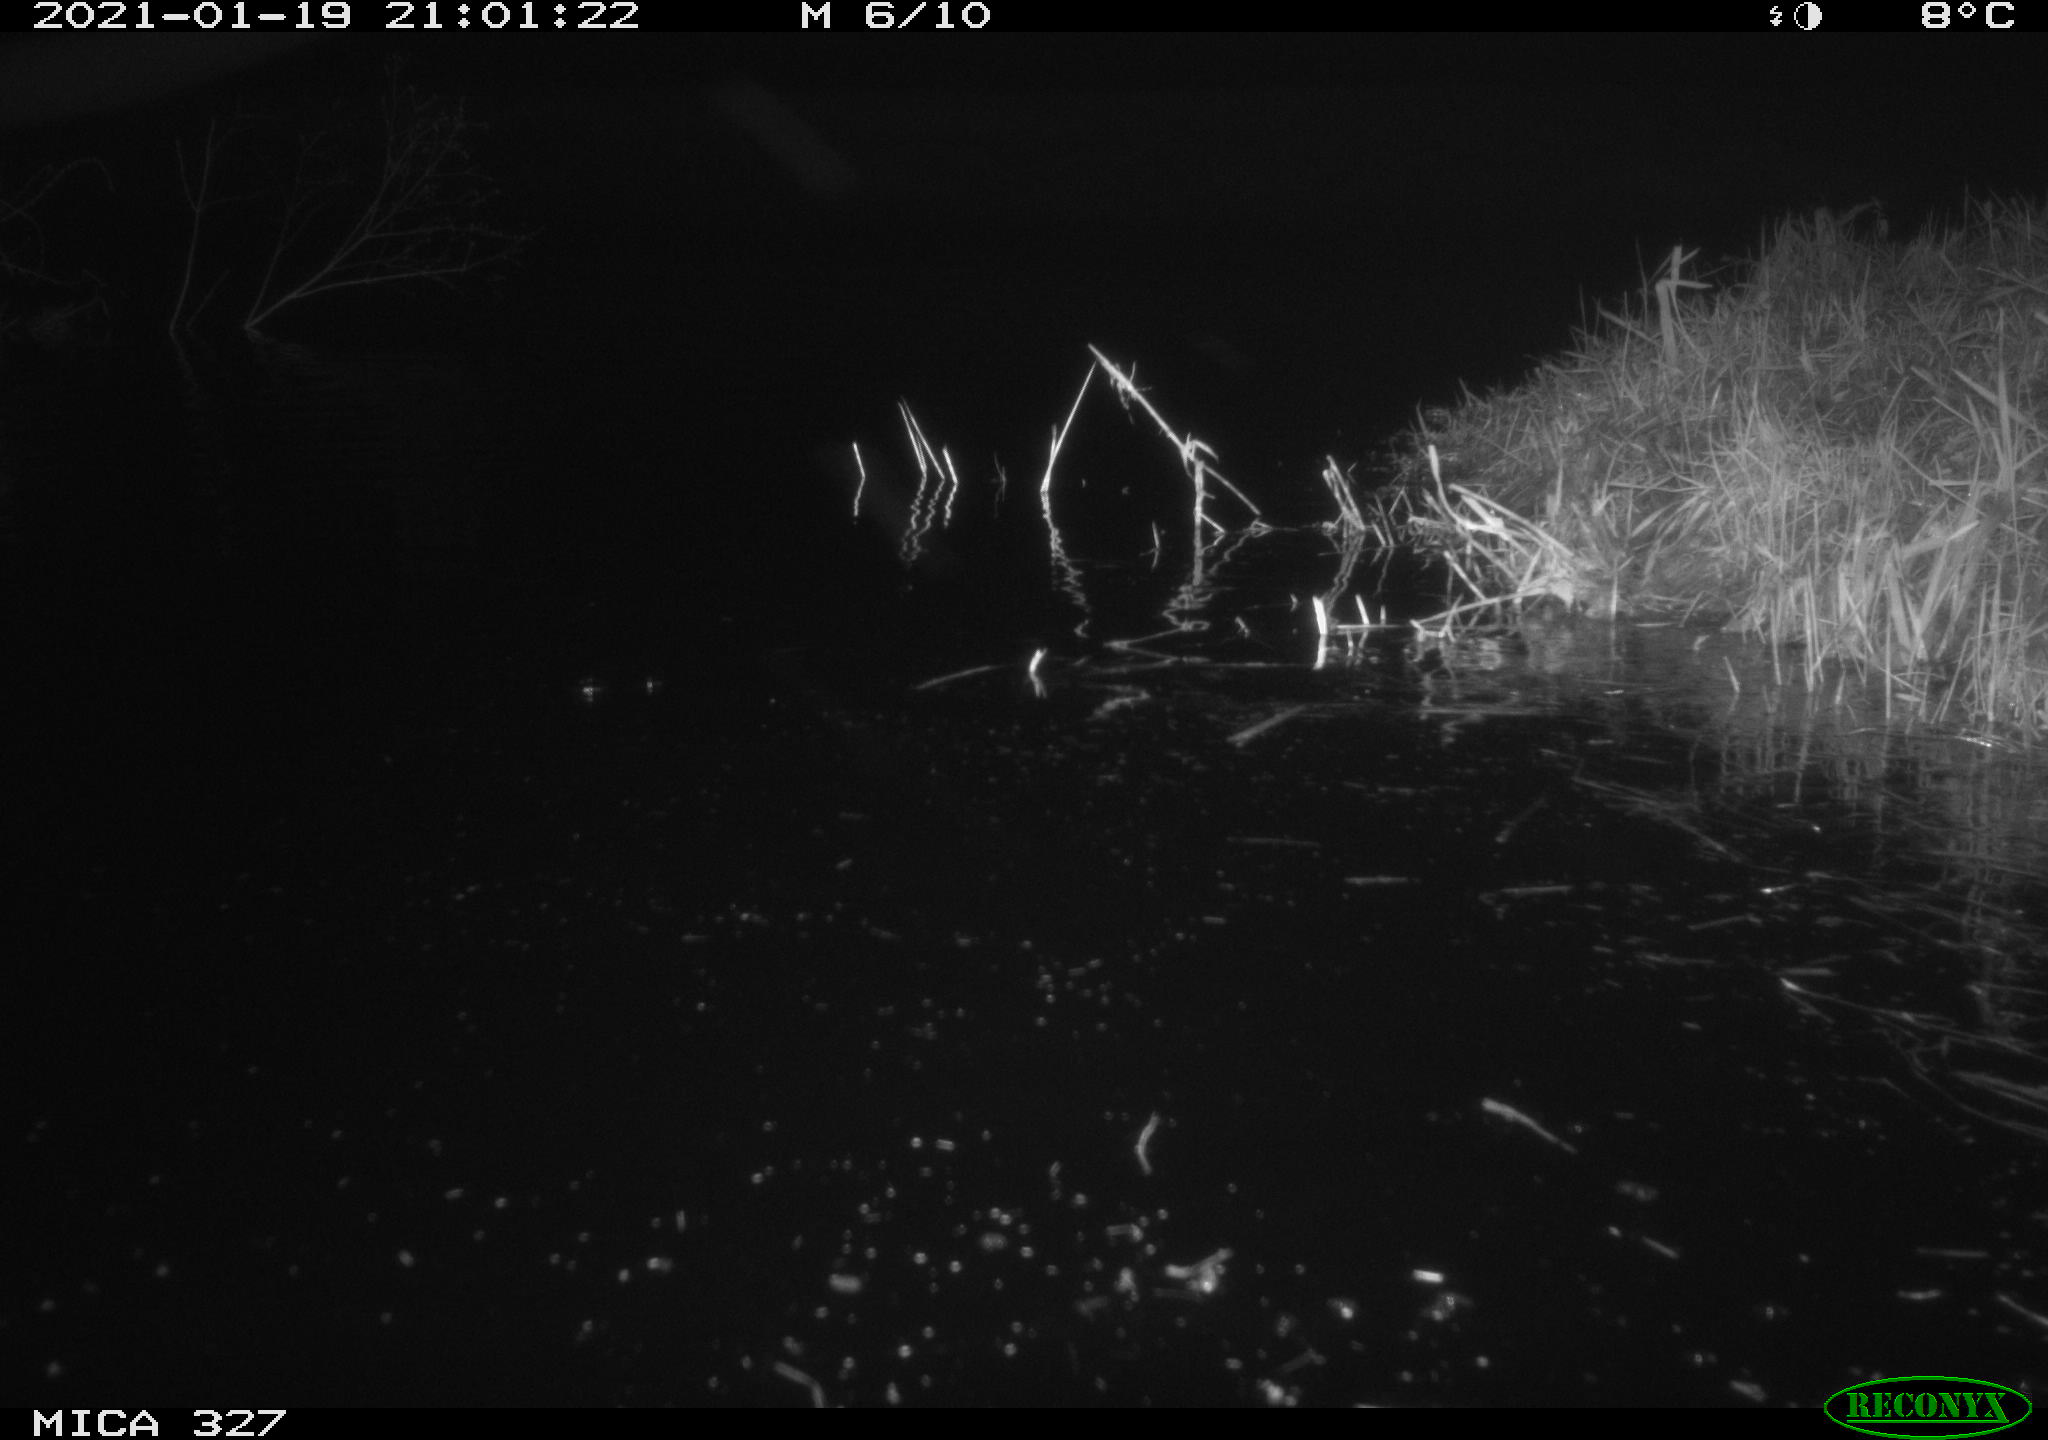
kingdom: Animalia
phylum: Chordata
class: Mammalia
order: Rodentia
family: Cricetidae
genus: Ondatra
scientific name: Ondatra zibethicus
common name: Muskrat
